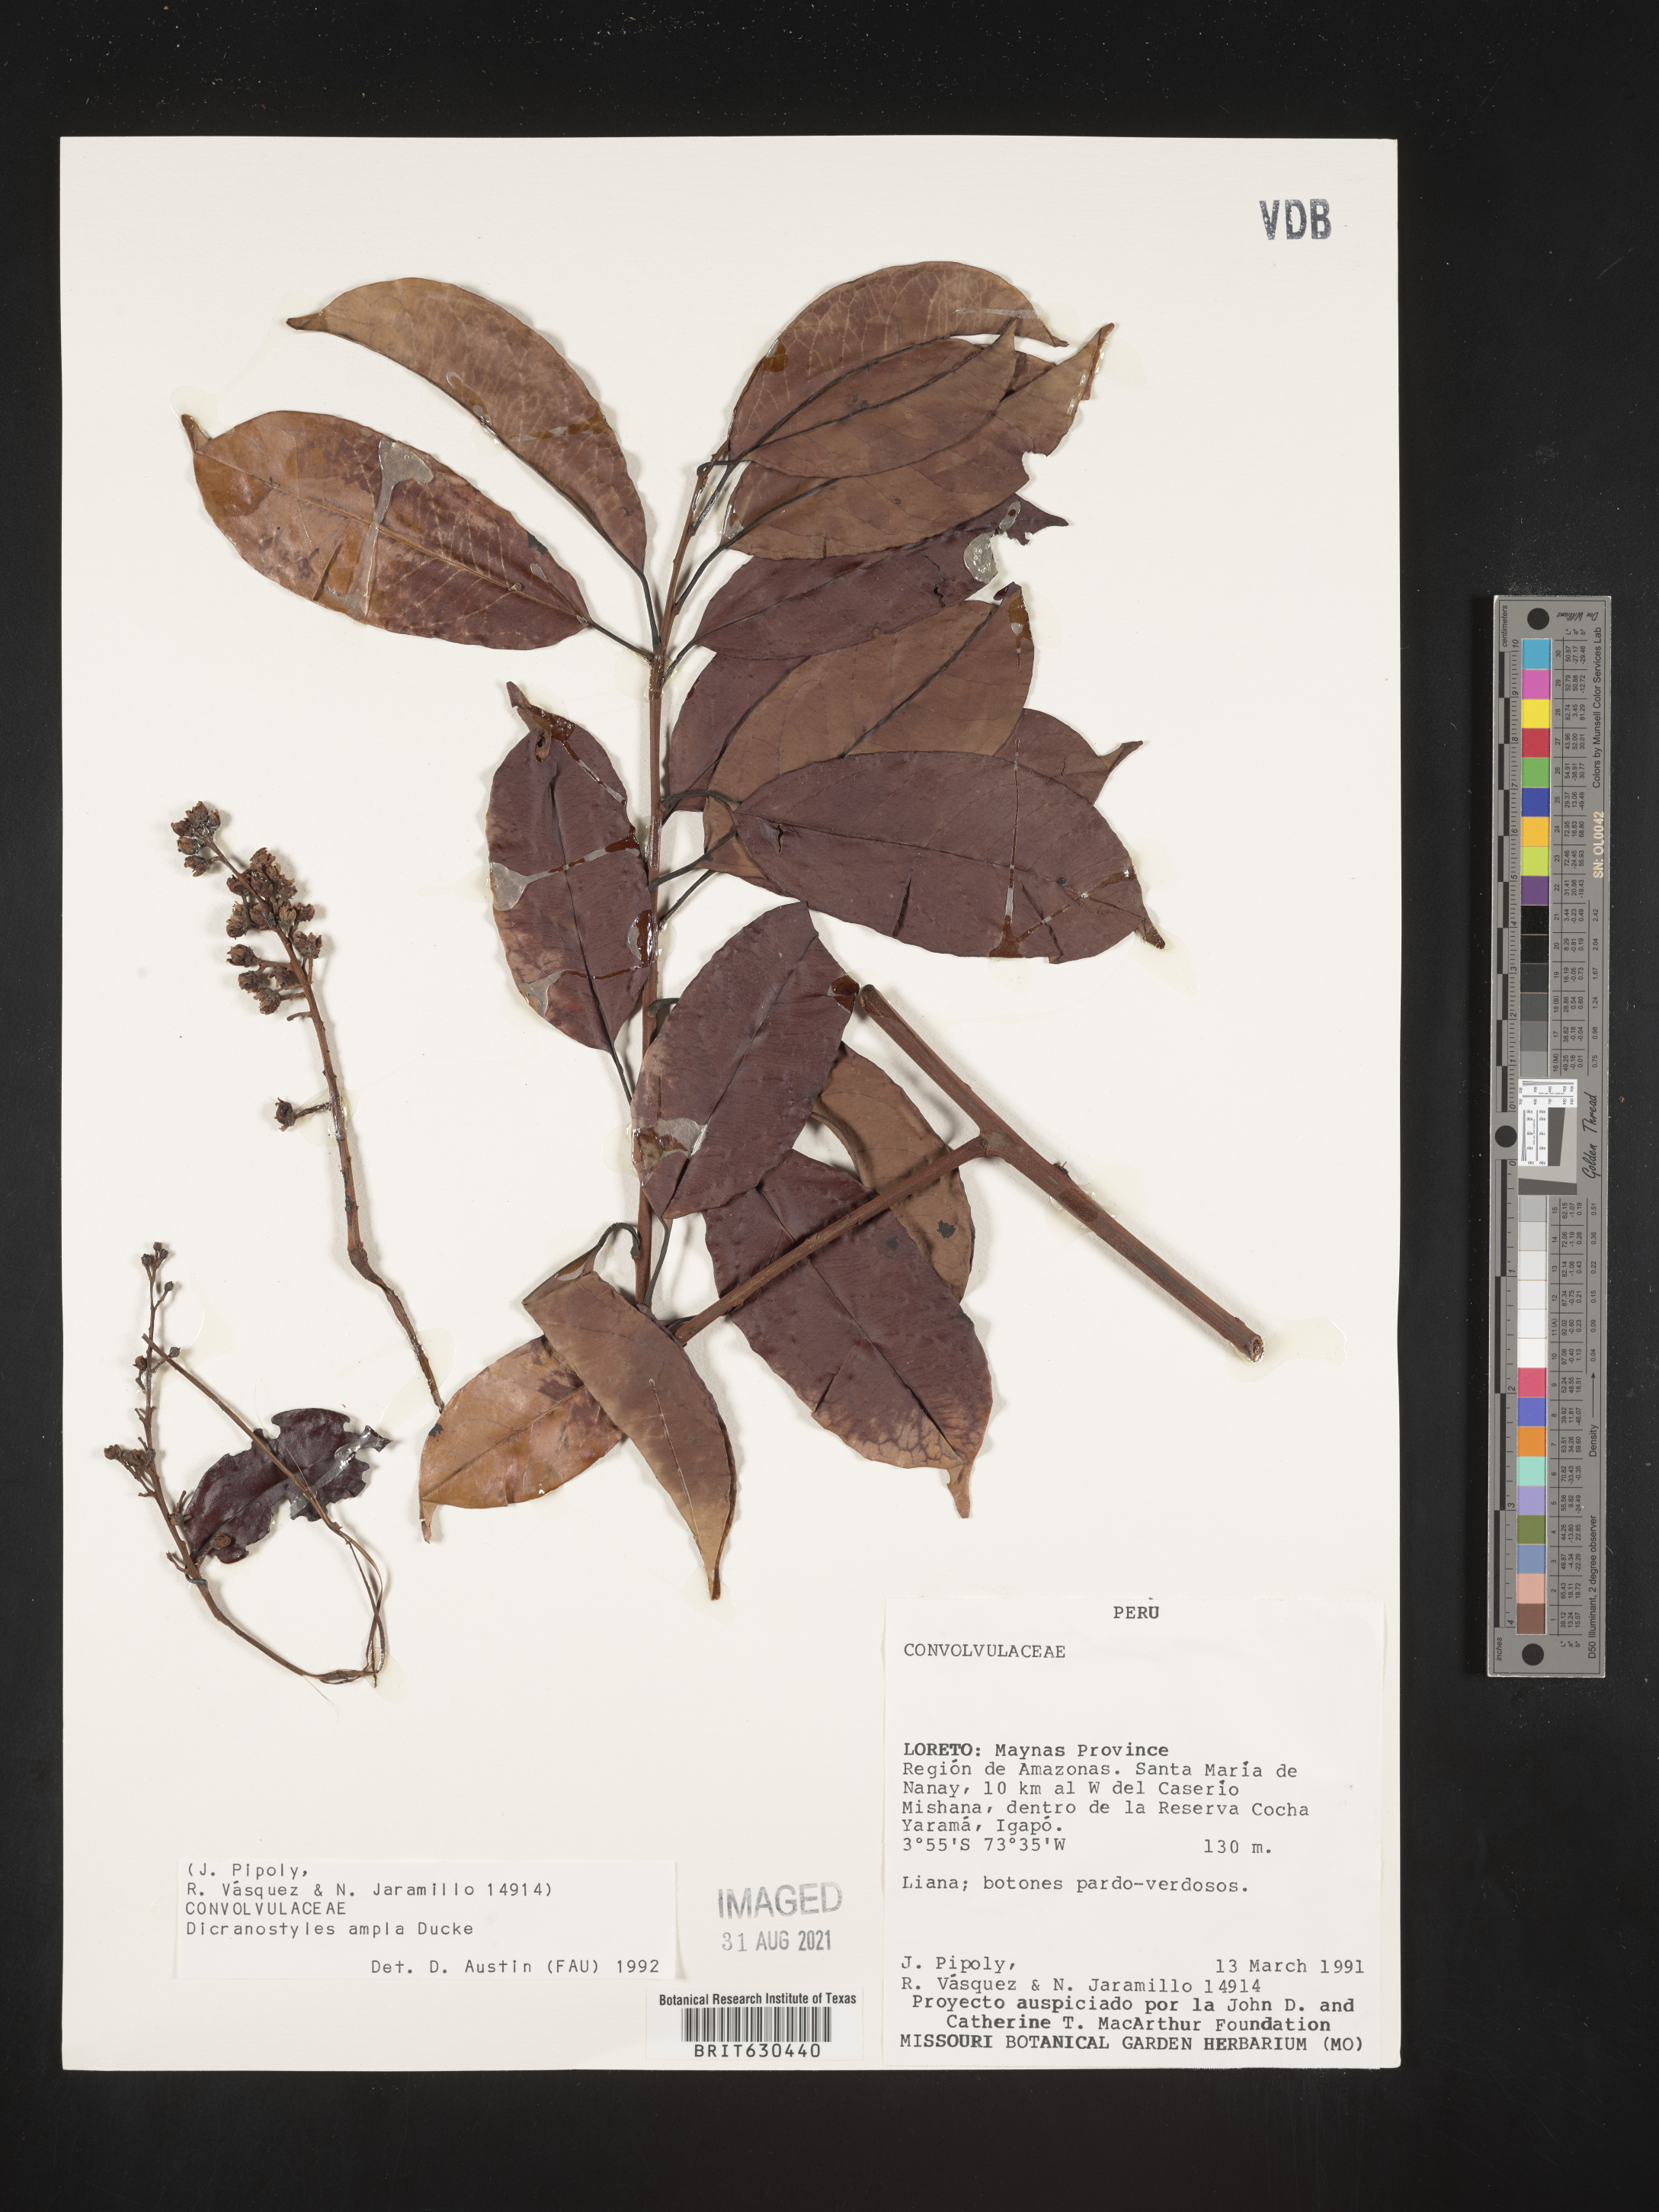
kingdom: Plantae
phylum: Tracheophyta
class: Magnoliopsida
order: Solanales
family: Convolvulaceae
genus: Dicranostyles
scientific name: Dicranostyles ampla
